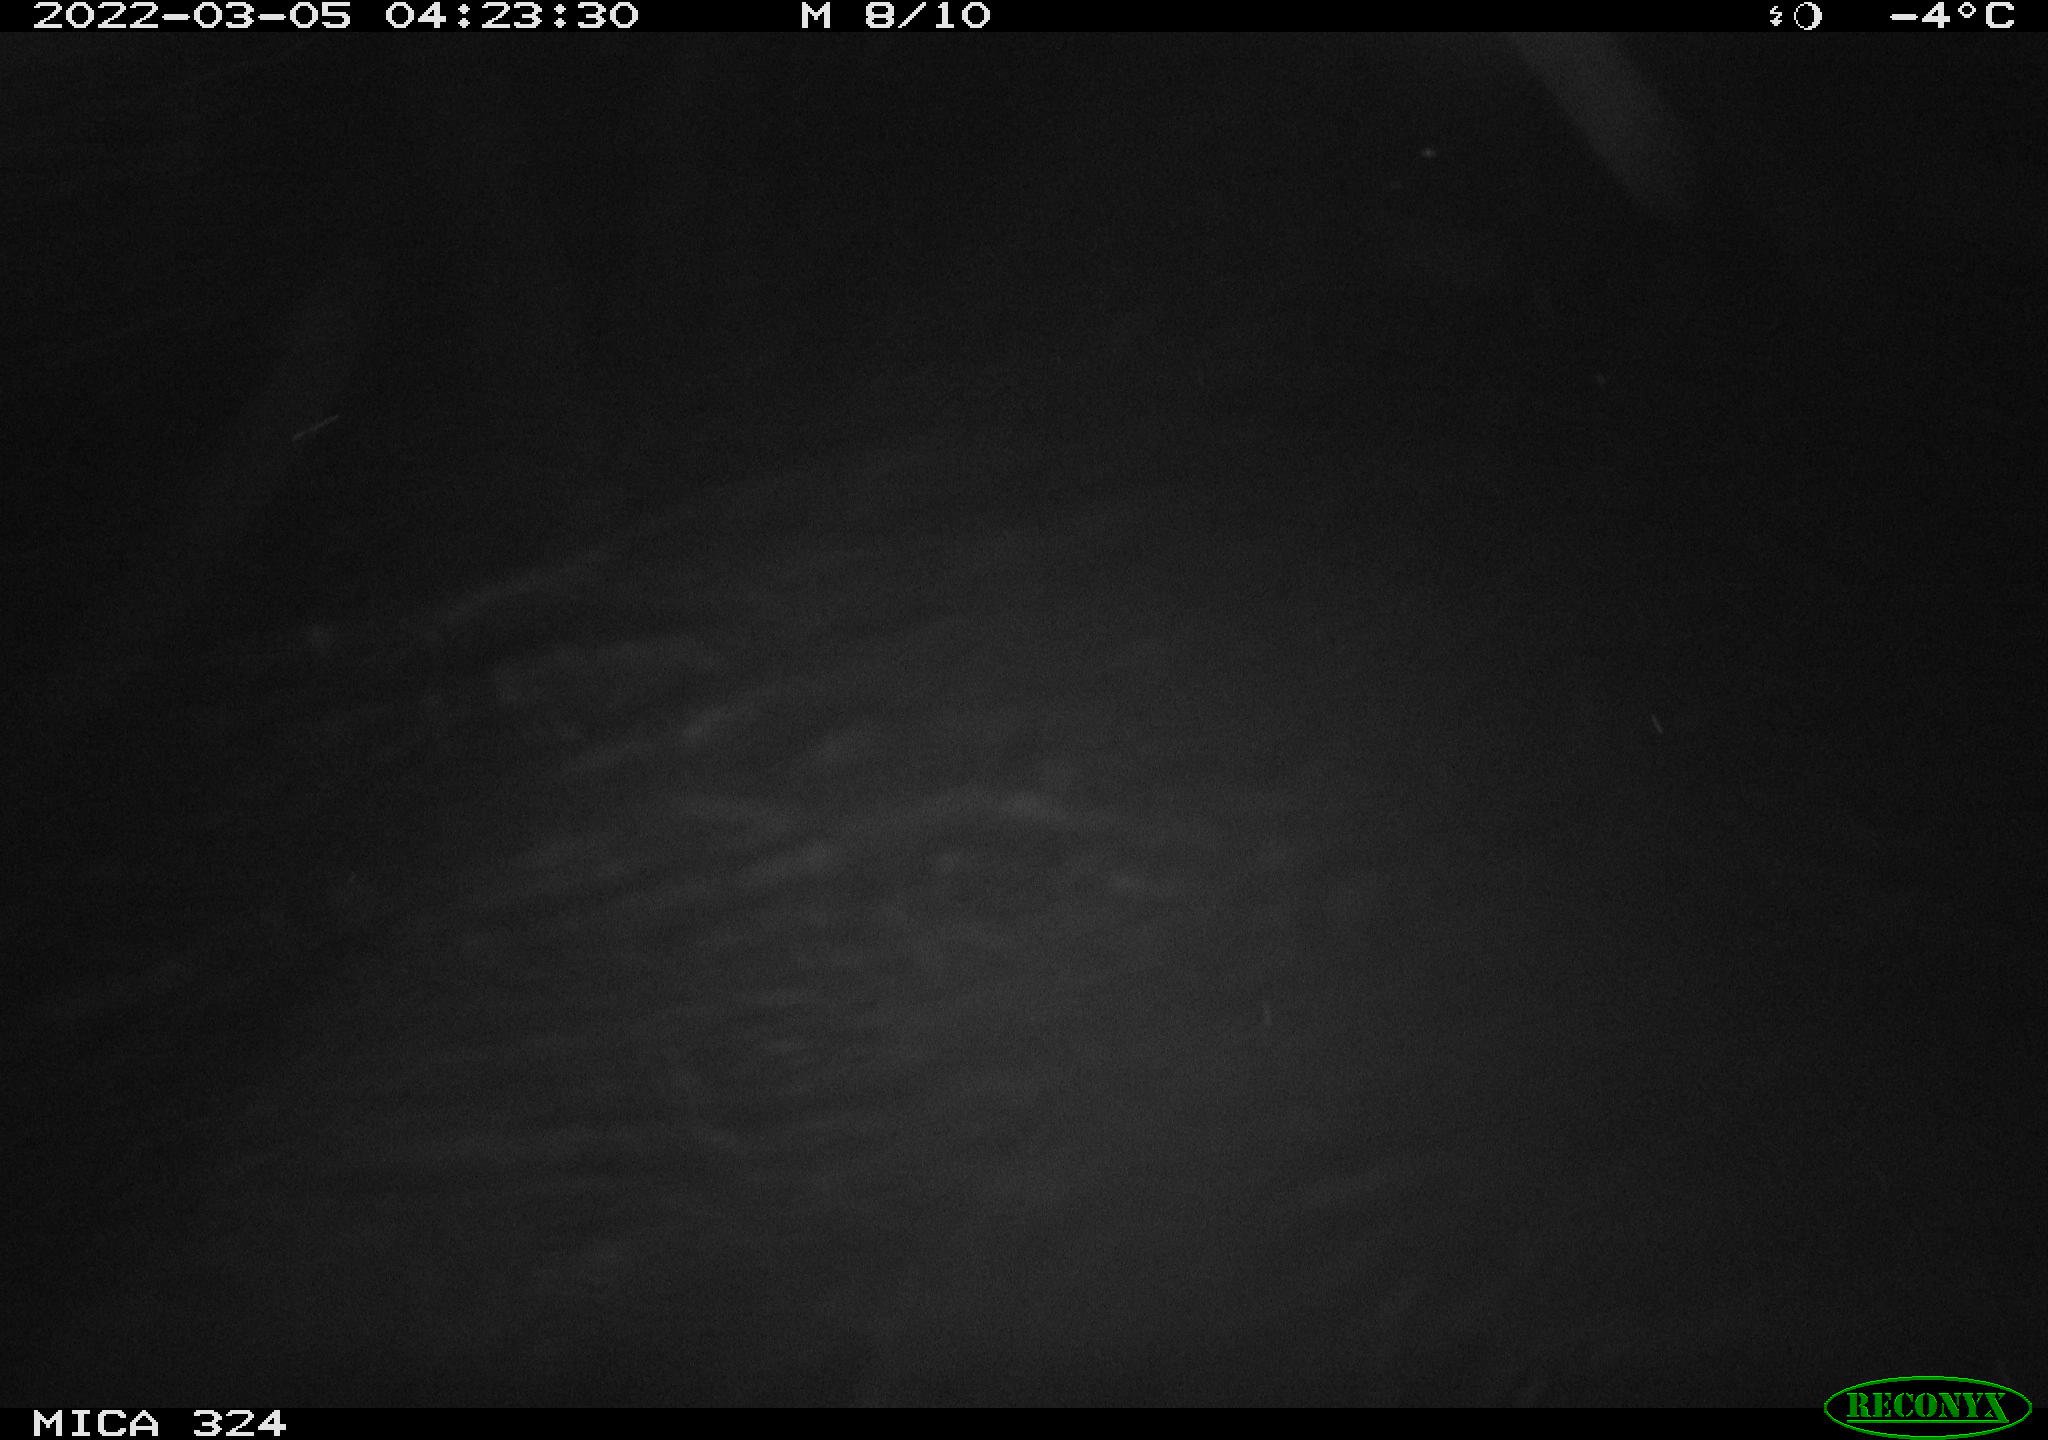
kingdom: Animalia
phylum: Chordata
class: Mammalia
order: Rodentia
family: Cricetidae
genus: Ondatra
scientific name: Ondatra zibethicus
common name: Muskrat
